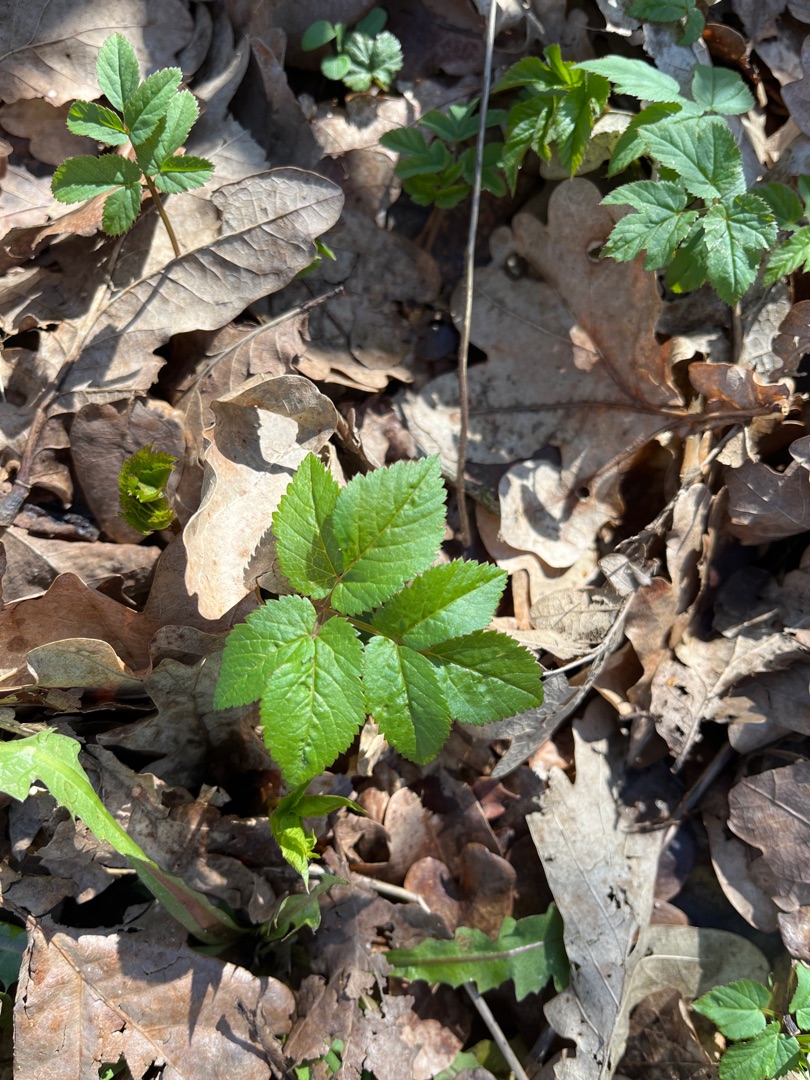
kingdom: Plantae
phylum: Tracheophyta
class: Magnoliopsida
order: Apiales
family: Apiaceae
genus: Aegopodium
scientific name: Aegopodium podagraria
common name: Skvalderkål
